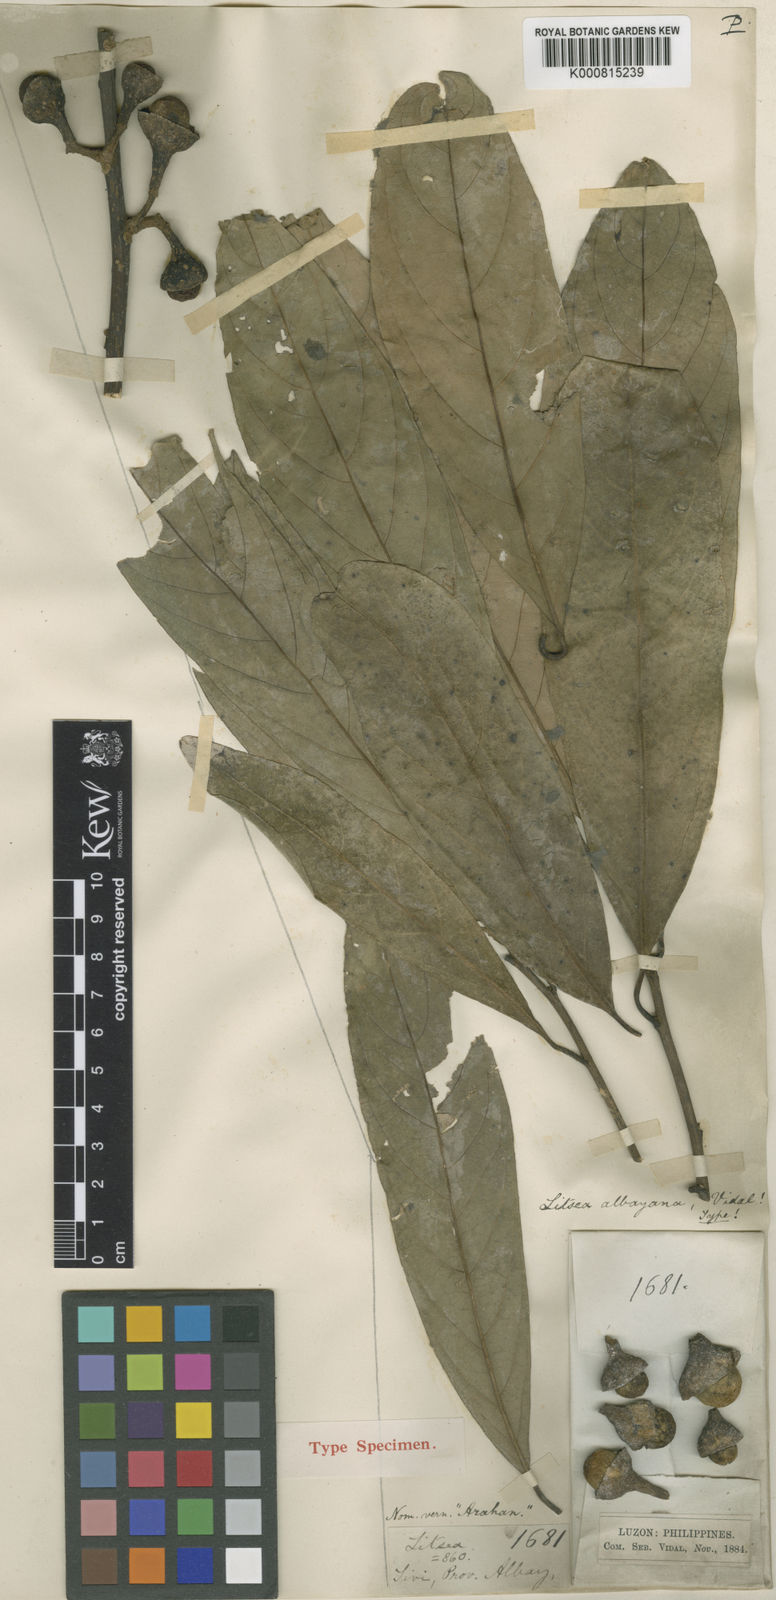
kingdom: Plantae
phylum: Tracheophyta
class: Magnoliopsida
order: Laurales
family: Lauraceae
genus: Litsea
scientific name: Litsea albayana
